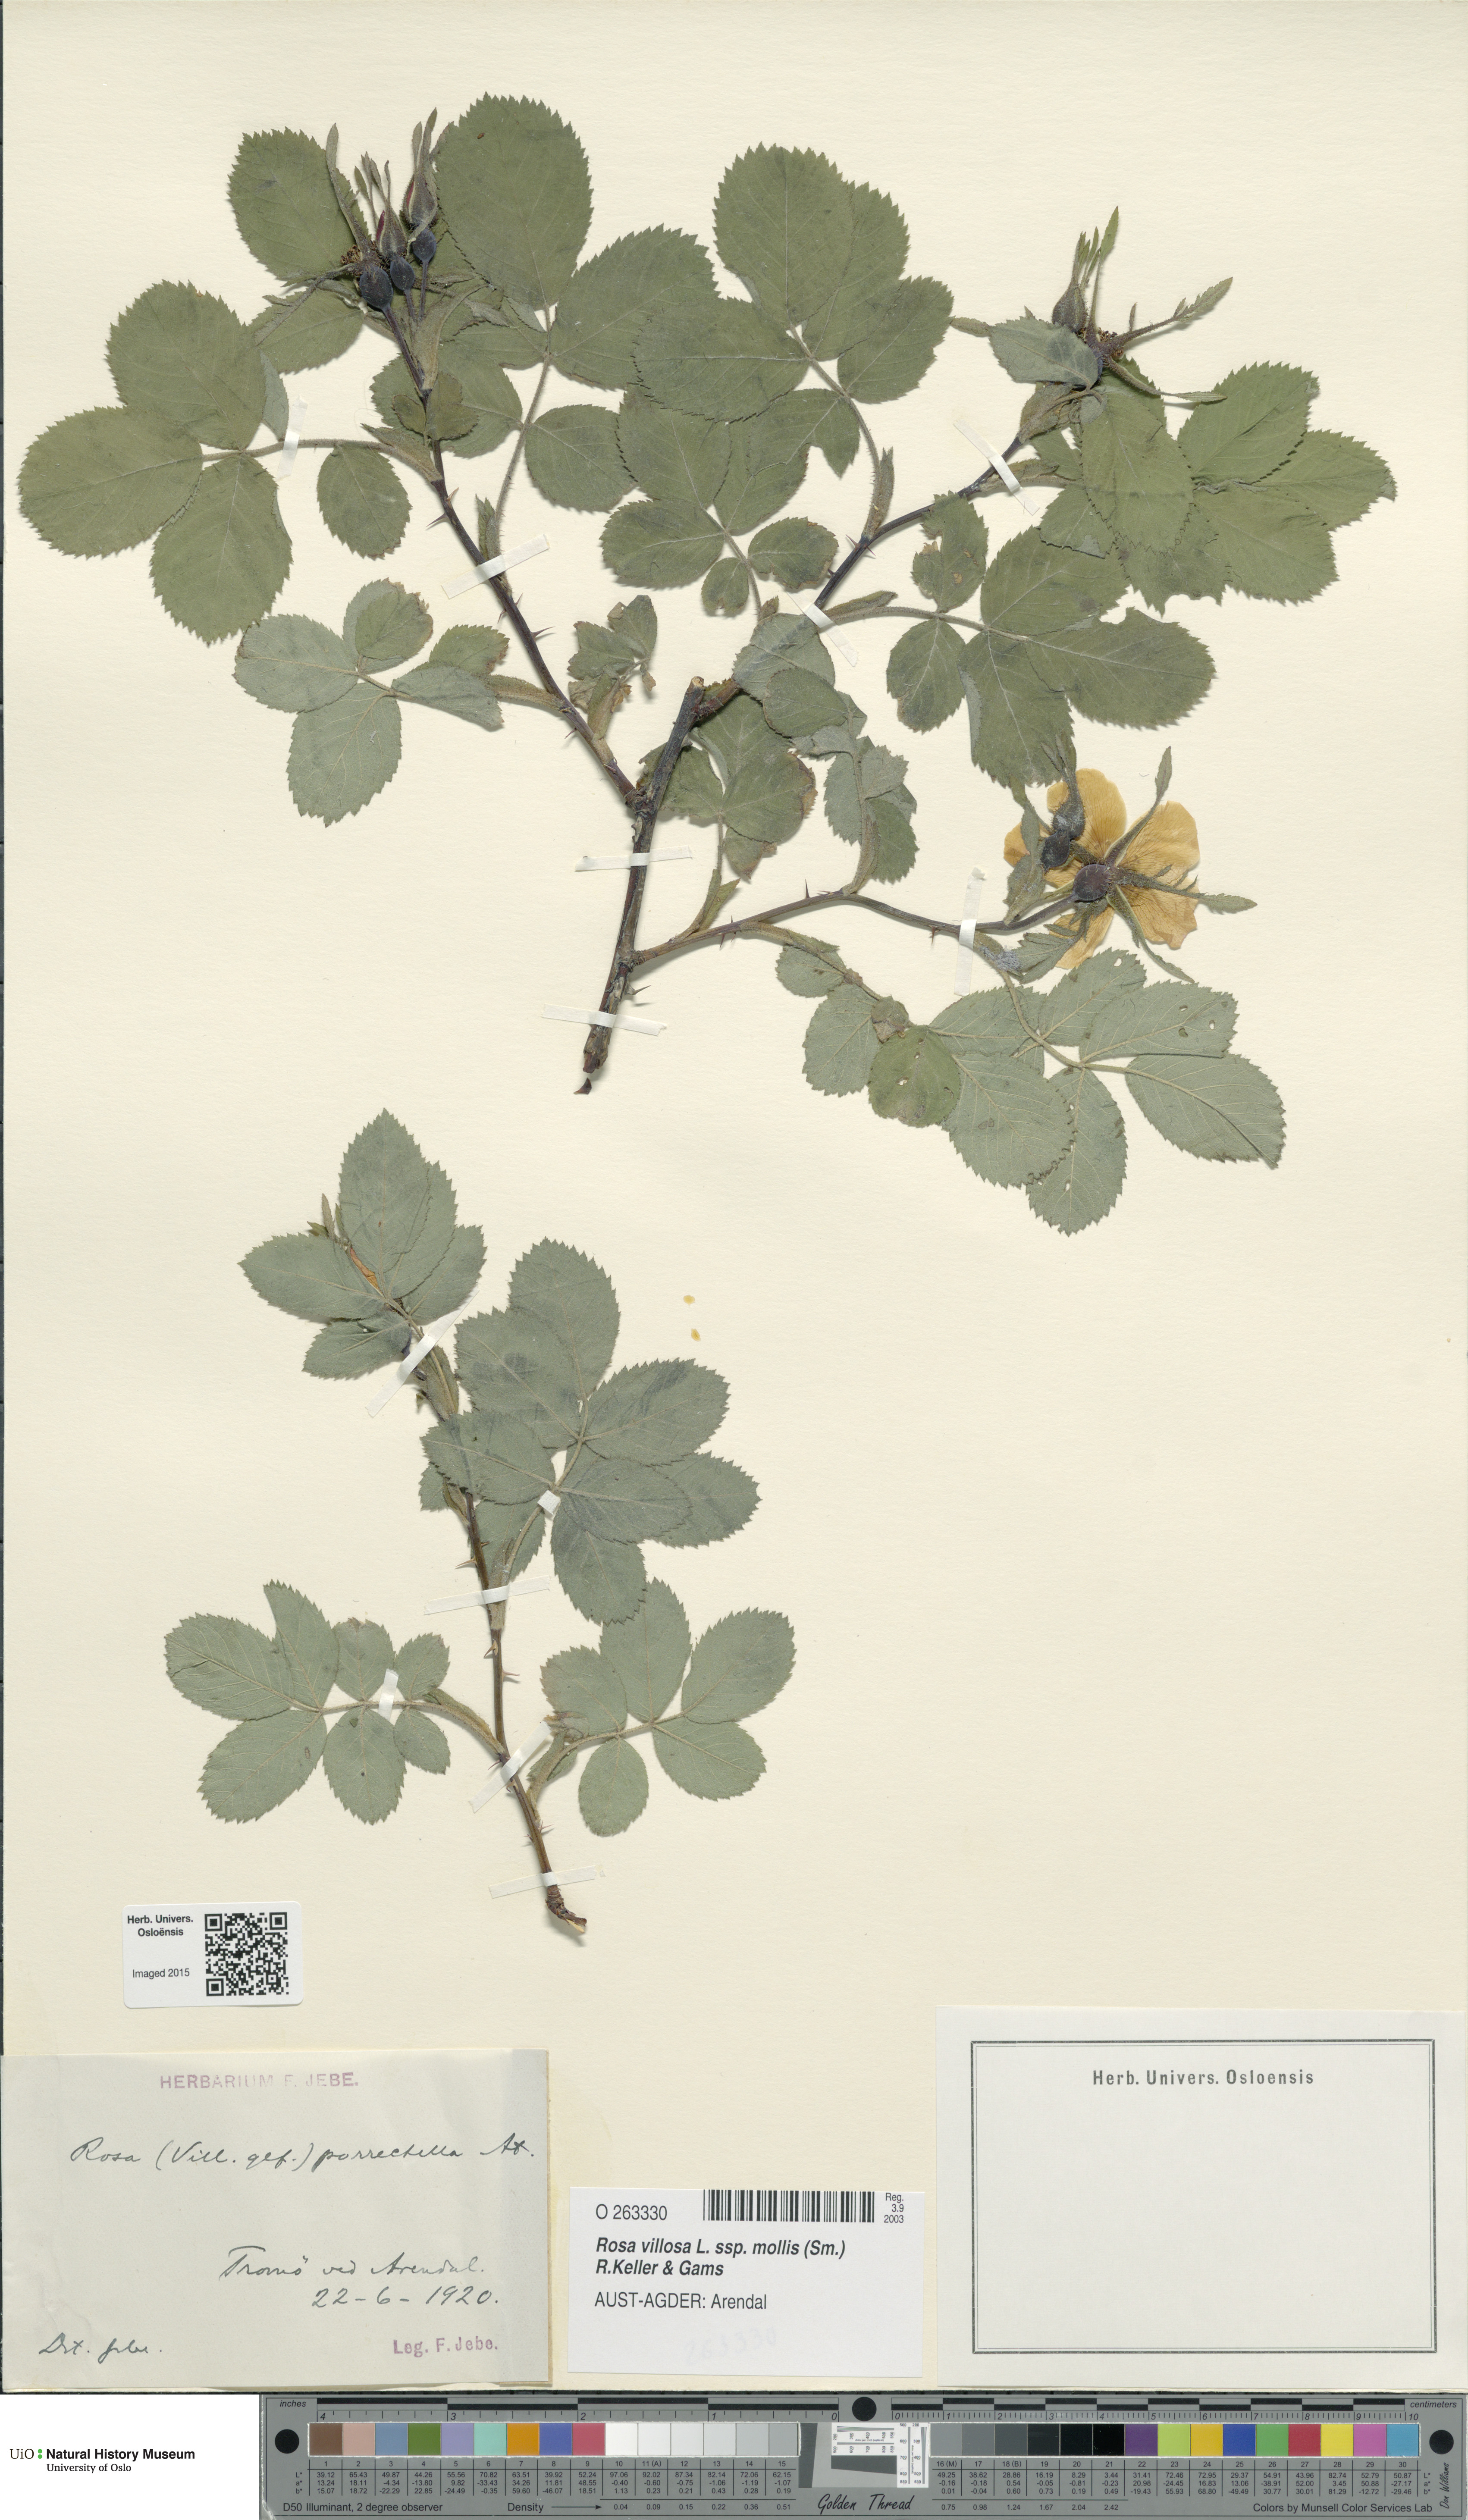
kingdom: Plantae
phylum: Tracheophyta
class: Magnoliopsida
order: Rosales
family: Rosaceae
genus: Rosa
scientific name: Rosa mollis
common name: Rose
